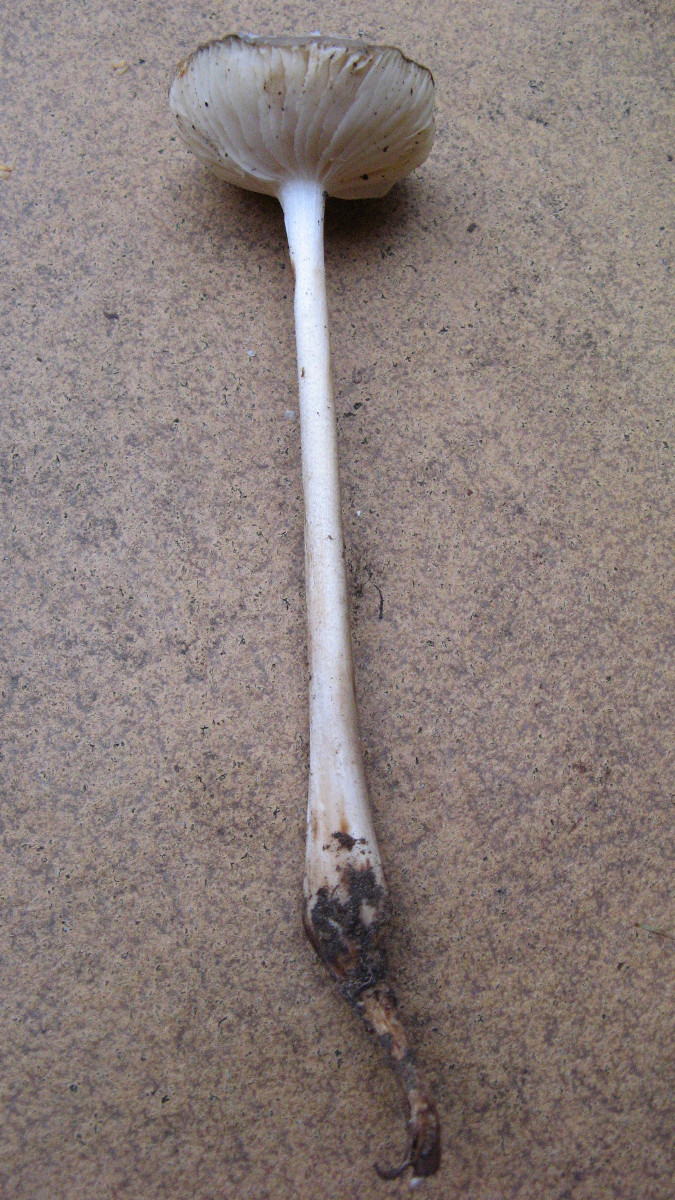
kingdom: Fungi
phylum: Basidiomycota
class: Agaricomycetes
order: Agaricales
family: Physalacriaceae
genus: Hymenopellis
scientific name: Hymenopellis radicata
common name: almindelig pælerodshat
